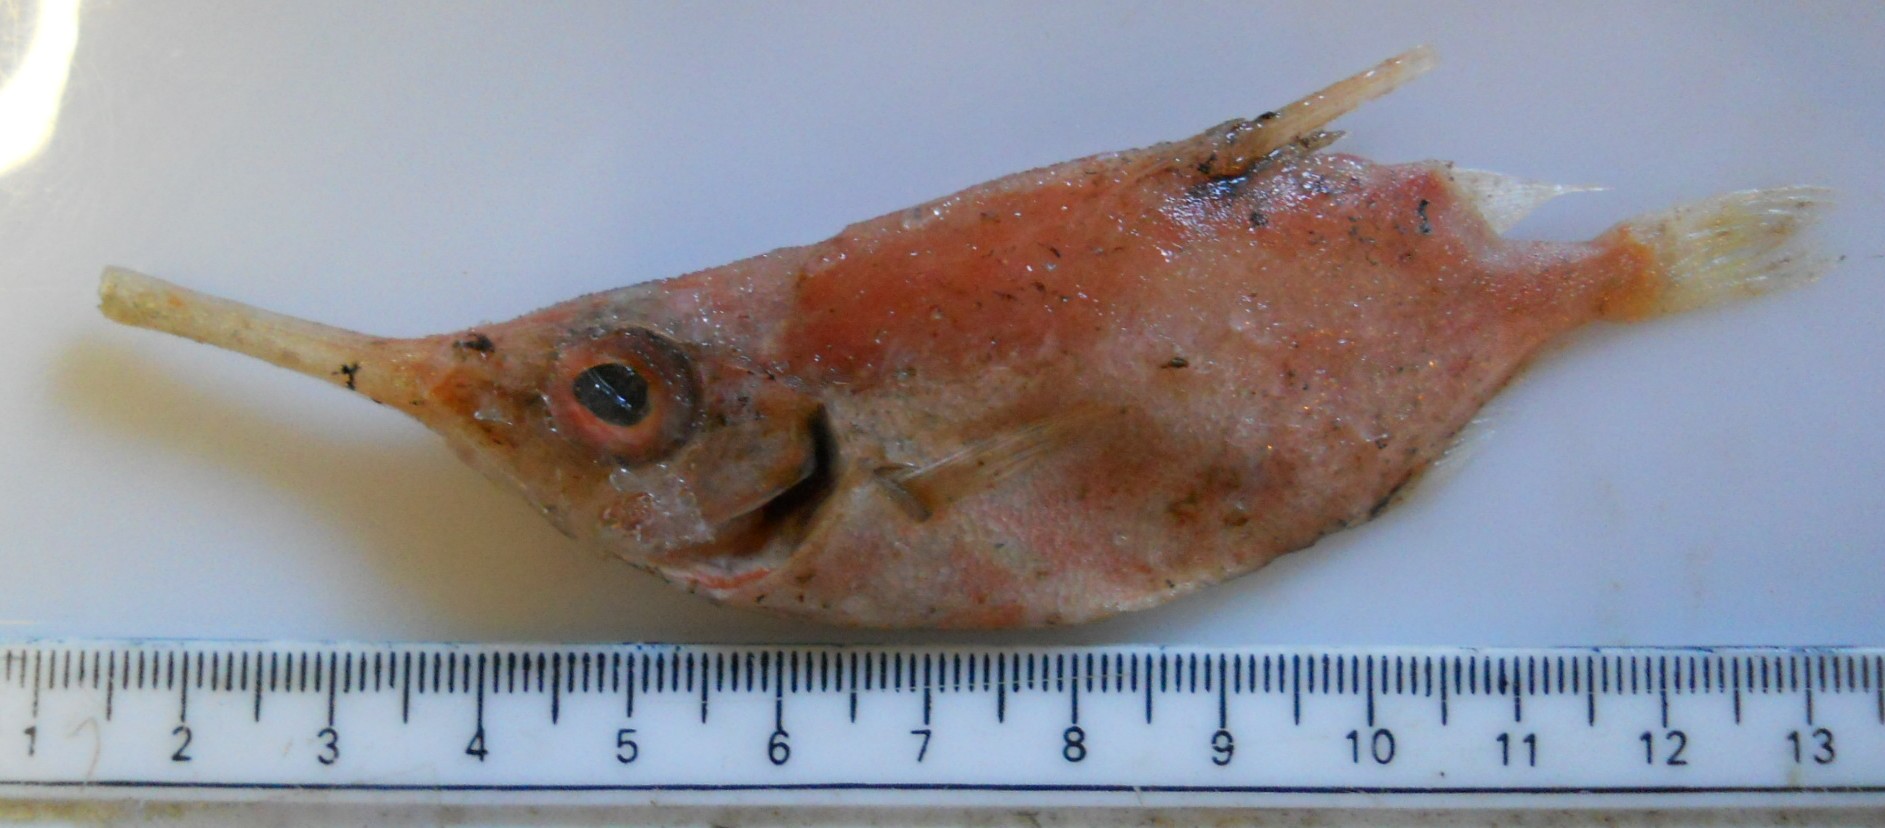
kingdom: Animalia
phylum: Chordata
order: Syngnathiformes
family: Centriscidae
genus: Macroramphosus
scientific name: Macroramphosus scolopax
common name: Snipe-fish
